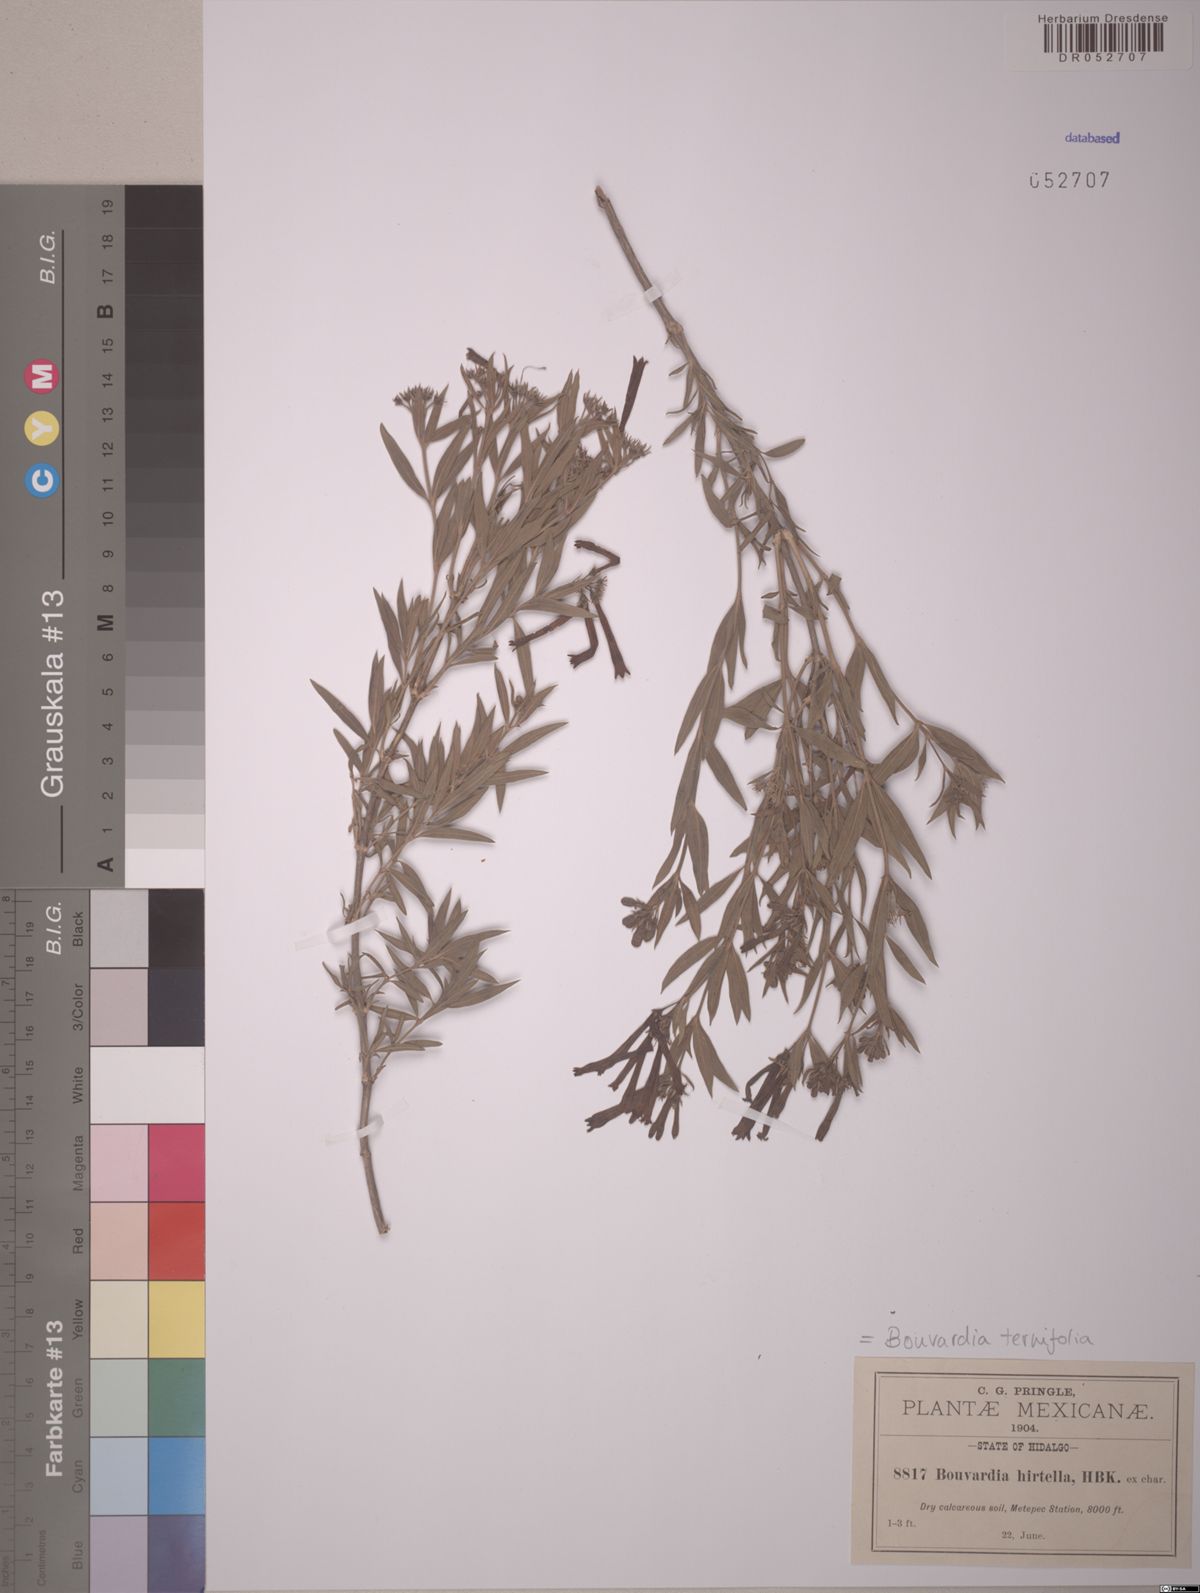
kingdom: Plantae
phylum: Tracheophyta
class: Magnoliopsida
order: Gentianales
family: Rubiaceae
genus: Bouvardia
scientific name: Bouvardia ternifolia
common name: Scarlet bouvardia
